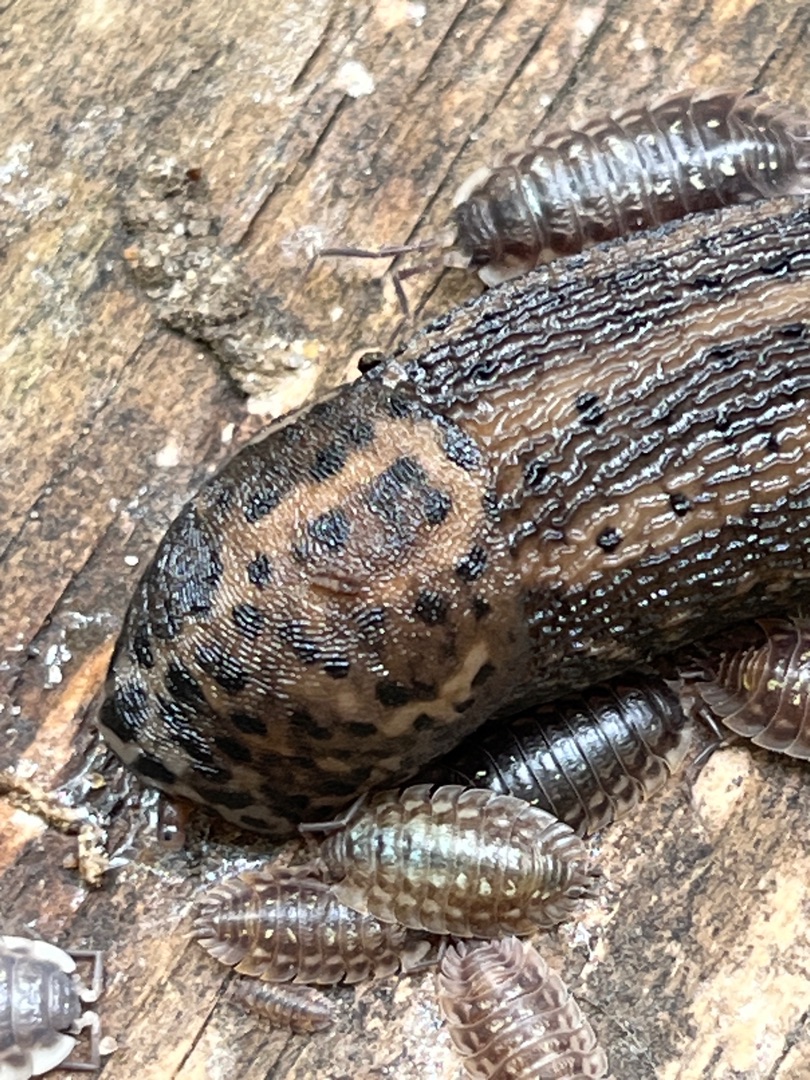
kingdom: Animalia
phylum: Mollusca
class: Gastropoda
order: Stylommatophora
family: Limacidae
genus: Limax
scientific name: Limax maximus
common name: Pantersnegl
